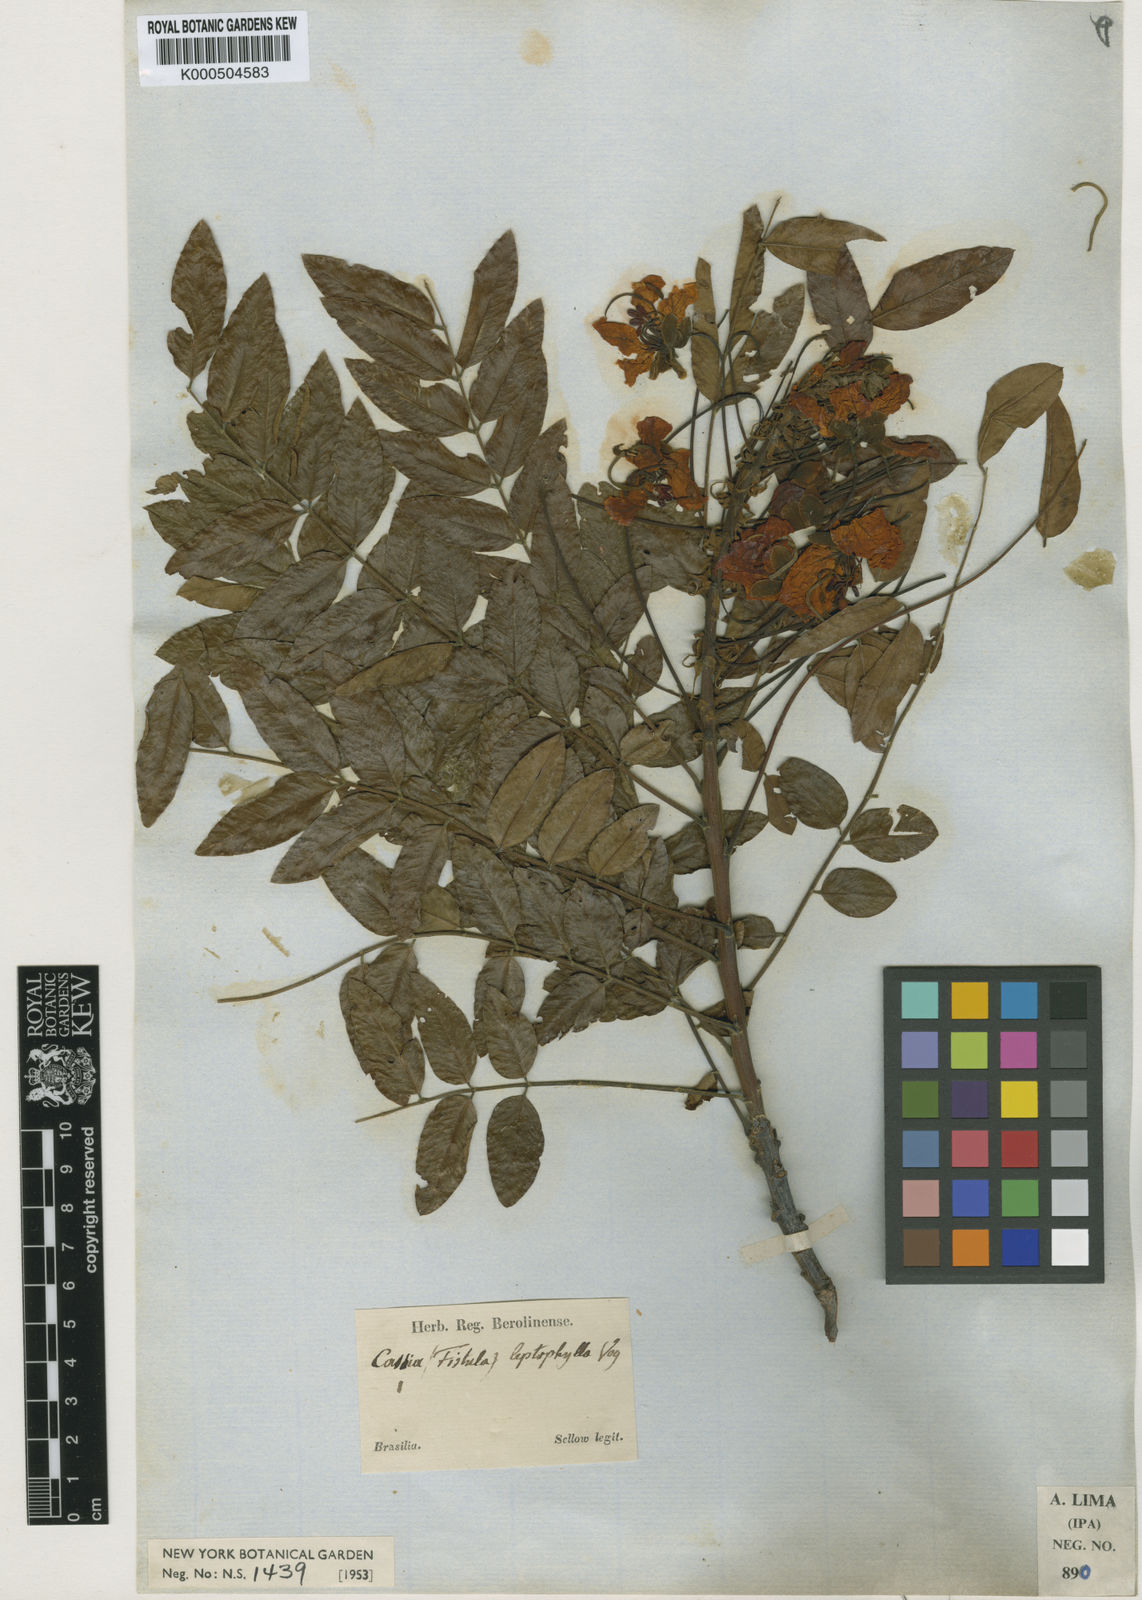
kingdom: Plantae
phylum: Tracheophyta
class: Magnoliopsida
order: Fabales
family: Fabaceae
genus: Cassia
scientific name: Cassia leptophylla
